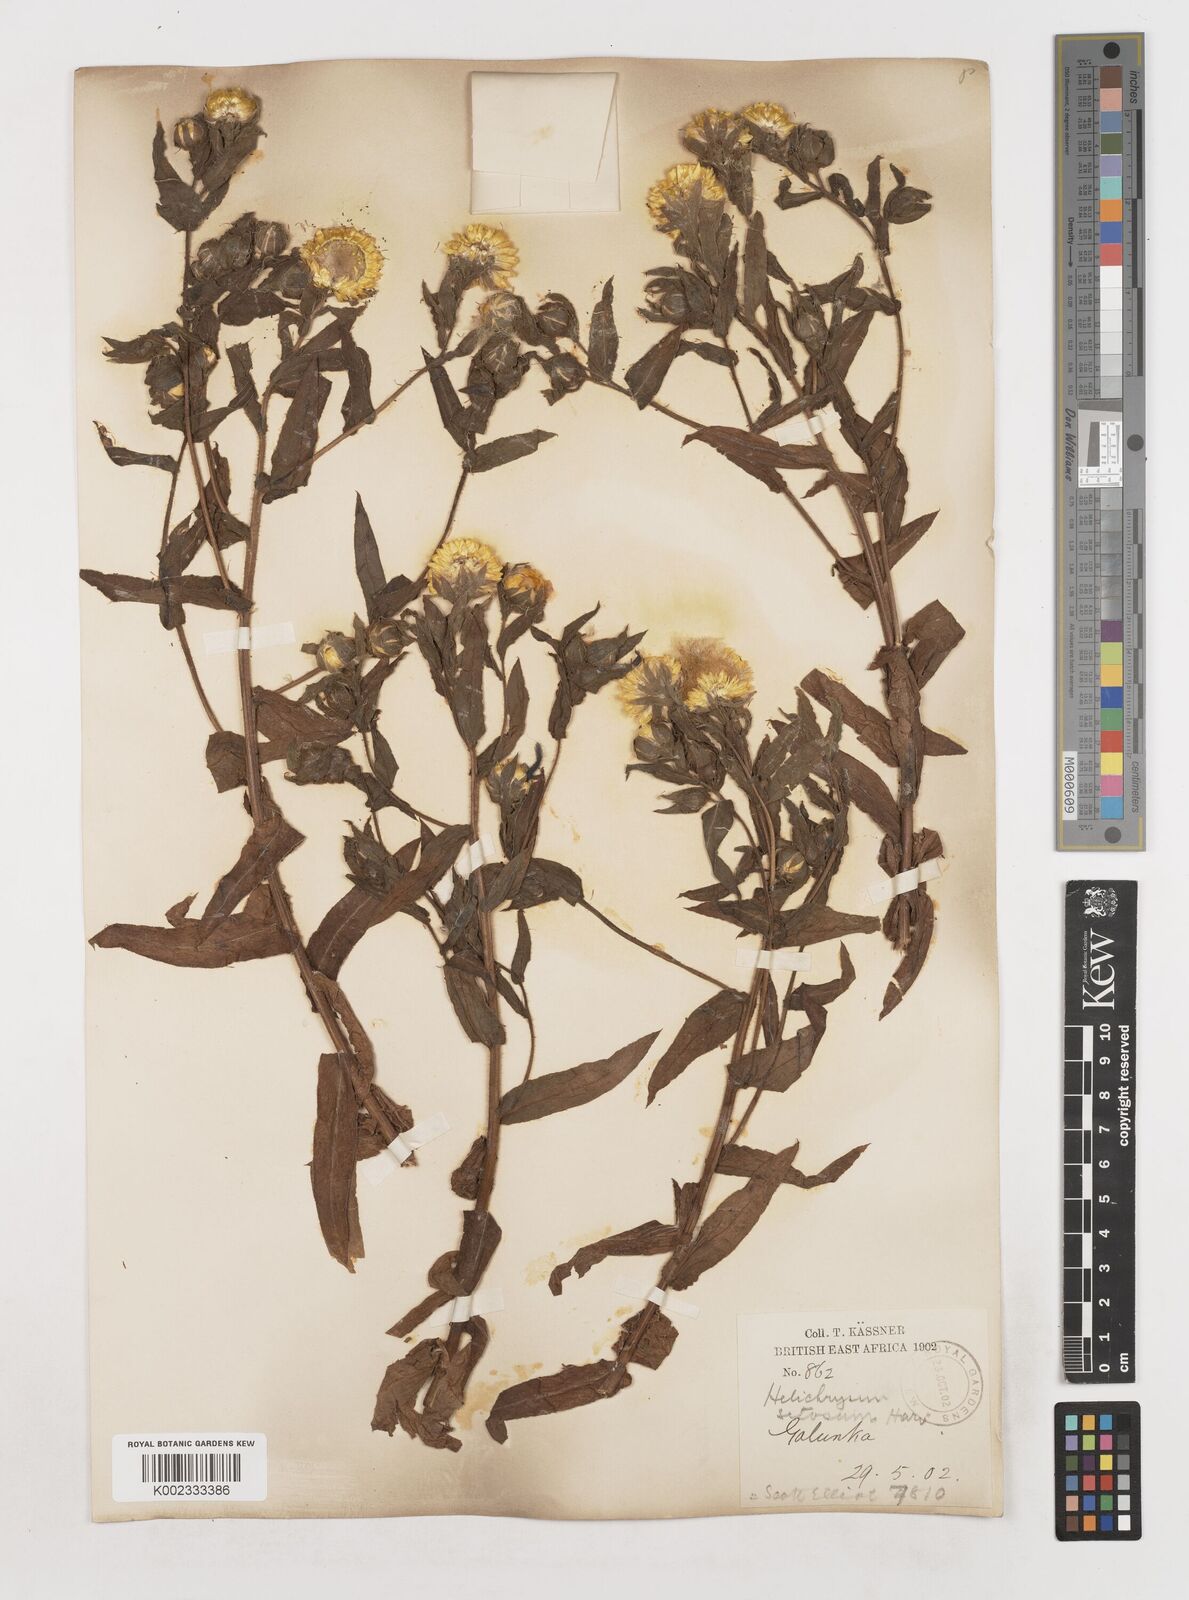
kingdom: Plantae
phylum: Tracheophyta
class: Magnoliopsida
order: Asterales
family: Asteraceae
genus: Helichrysum
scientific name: Helichrysum setosum
